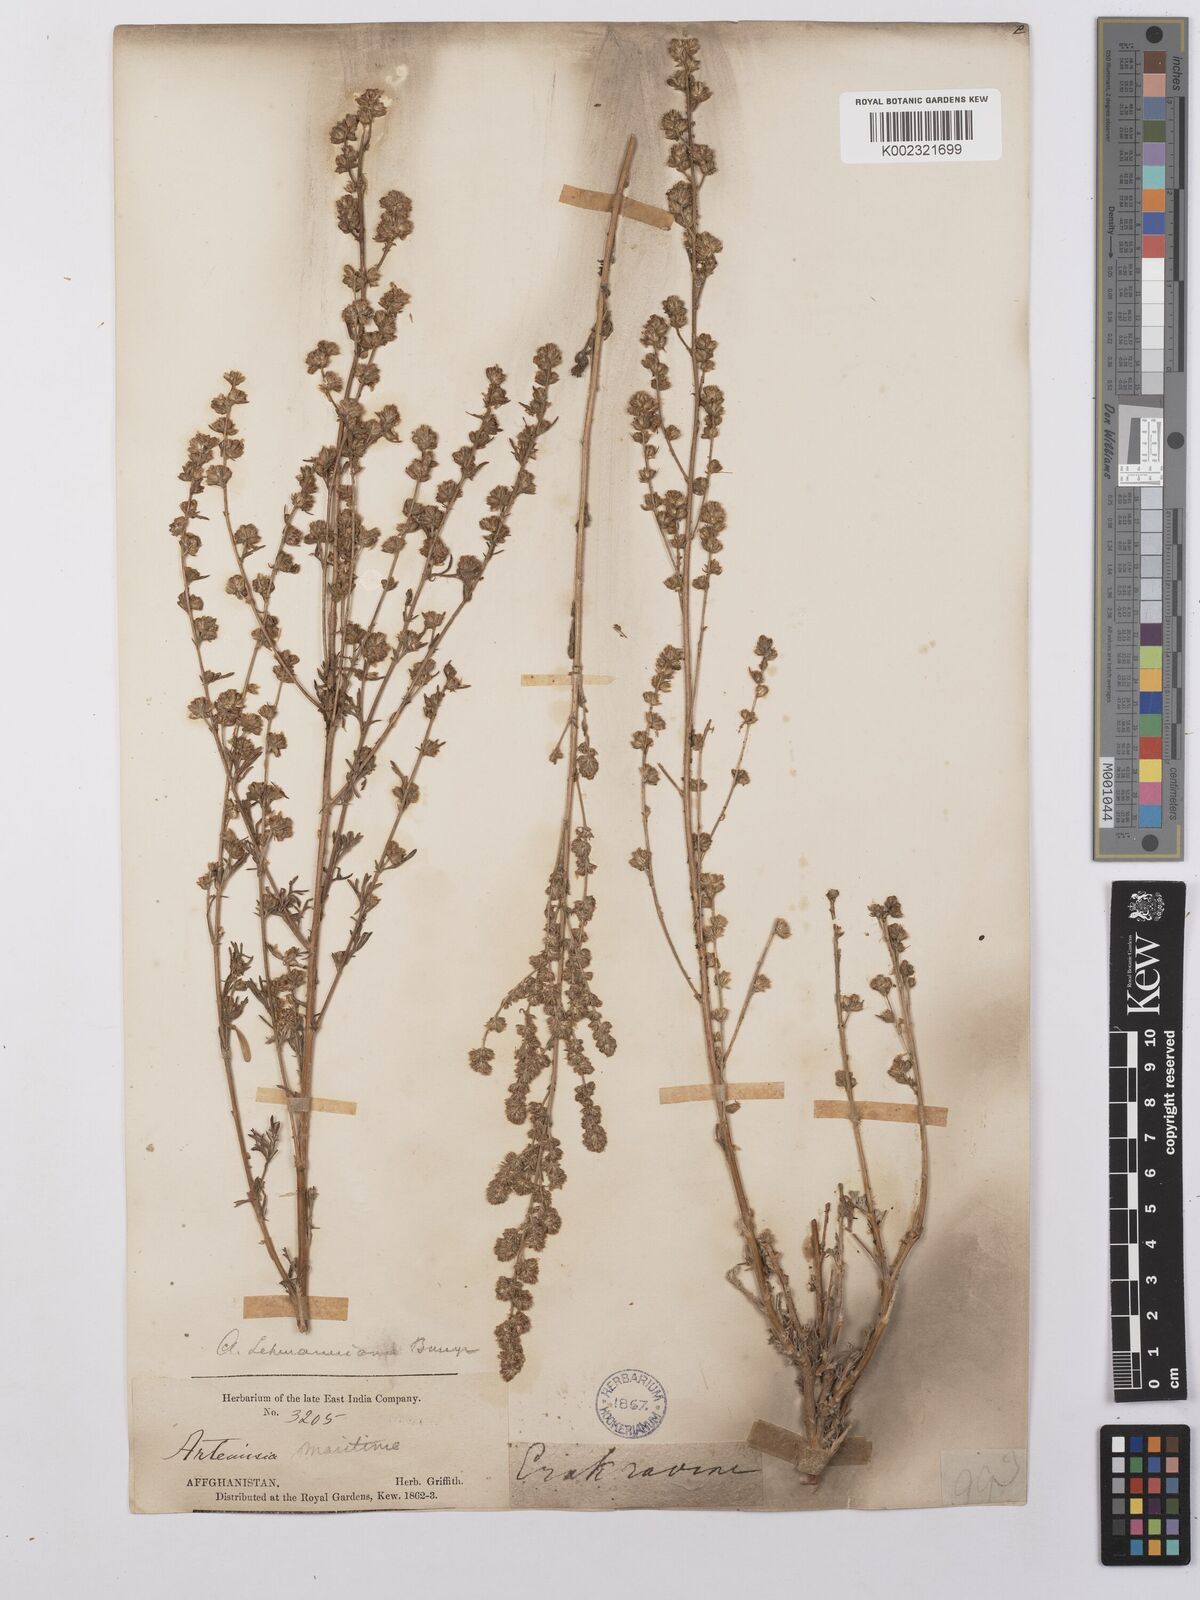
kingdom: Plantae
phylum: Tracheophyta
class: Magnoliopsida
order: Asterales
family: Asteraceae
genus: Artemisia
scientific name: Artemisia lehmanniana
